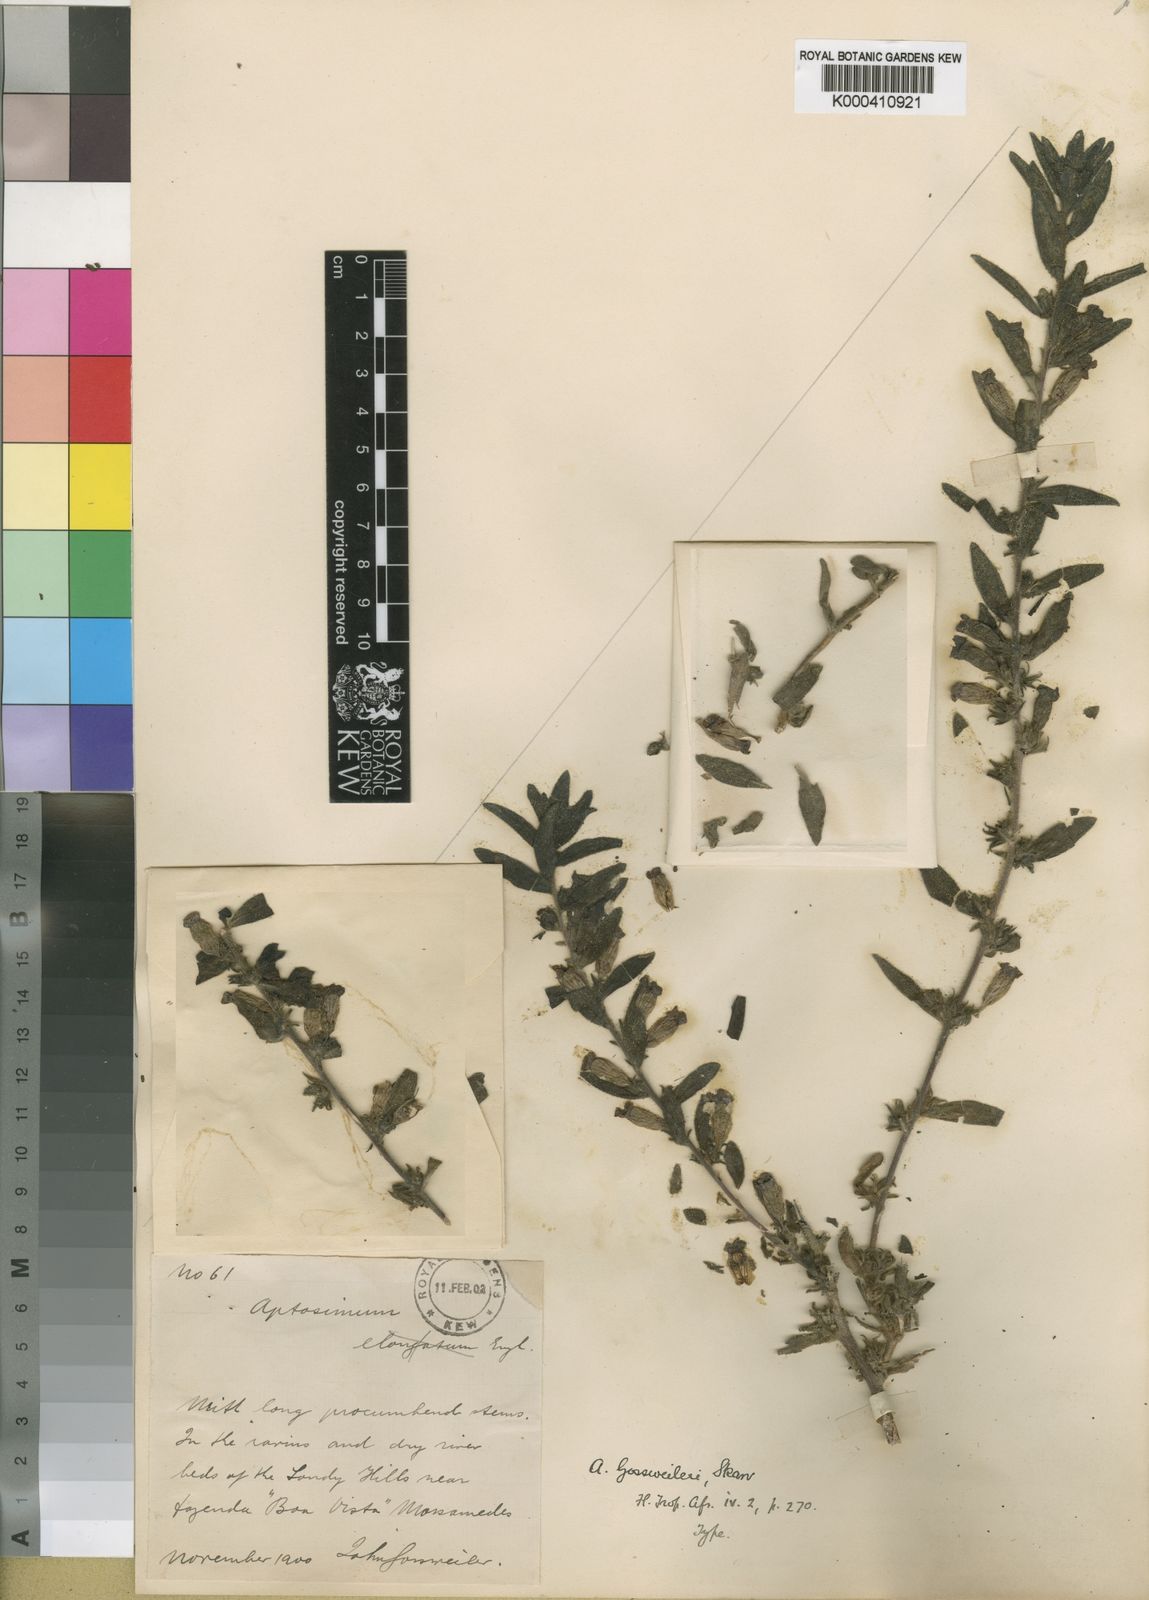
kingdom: Plantae
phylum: Tracheophyta
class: Magnoliopsida
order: Lamiales
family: Scrophulariaceae
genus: Aptosimum
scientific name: Aptosimum gossweileri
